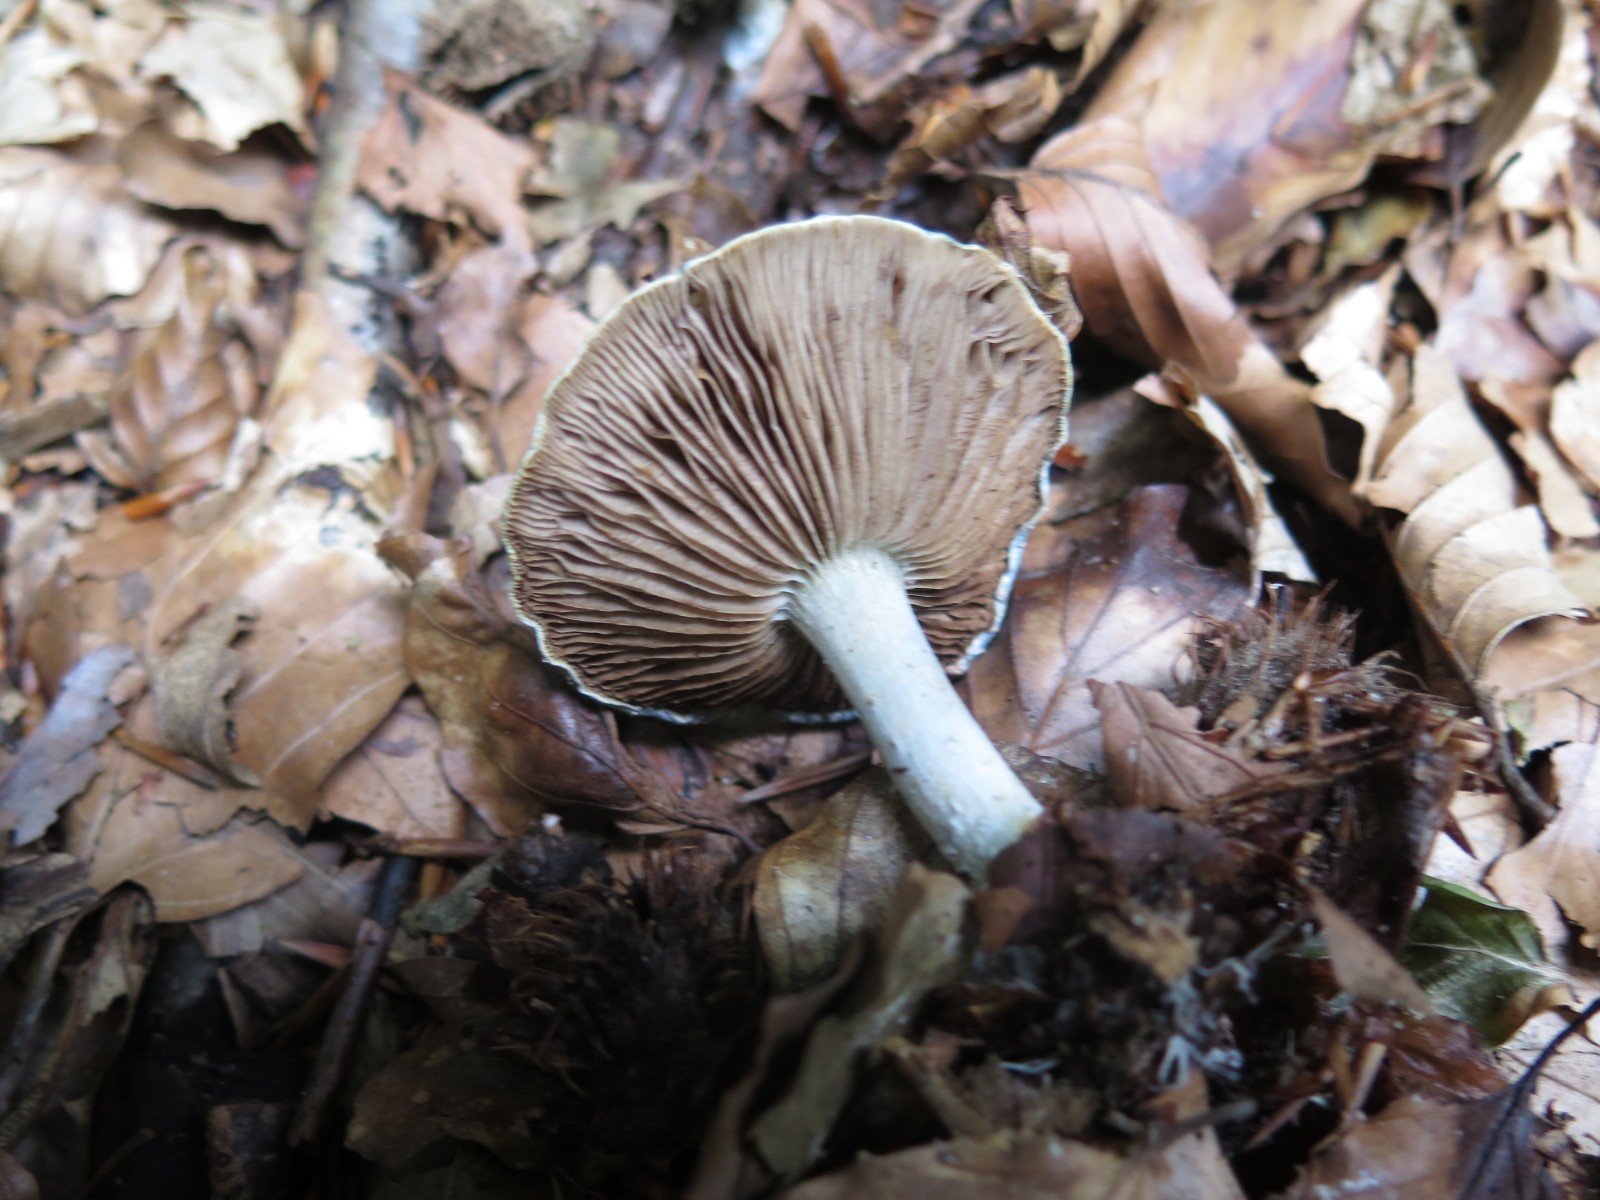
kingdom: Fungi
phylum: Basidiomycota
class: Agaricomycetes
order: Agaricales
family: Strophariaceae
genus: Stropharia
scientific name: Stropharia aeruginosa
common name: spanskgrøn bredblad
